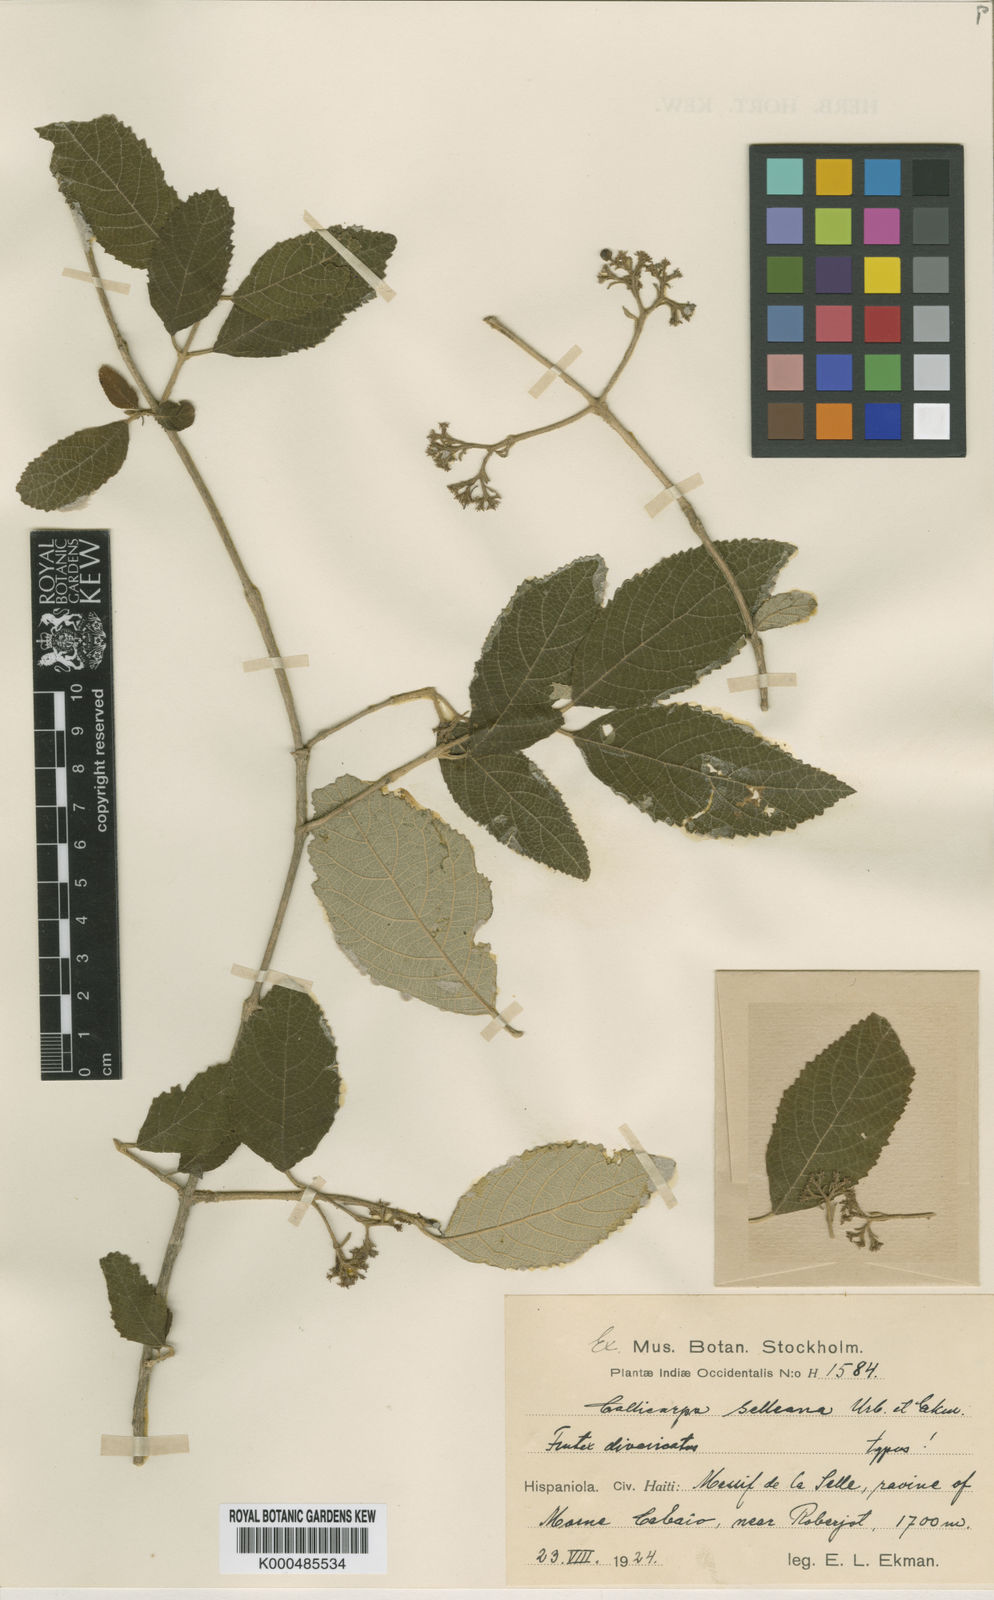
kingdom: Plantae
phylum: Tracheophyta
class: Magnoliopsida
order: Lamiales
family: Lamiaceae
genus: Callicarpa
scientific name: Callicarpa selleana
